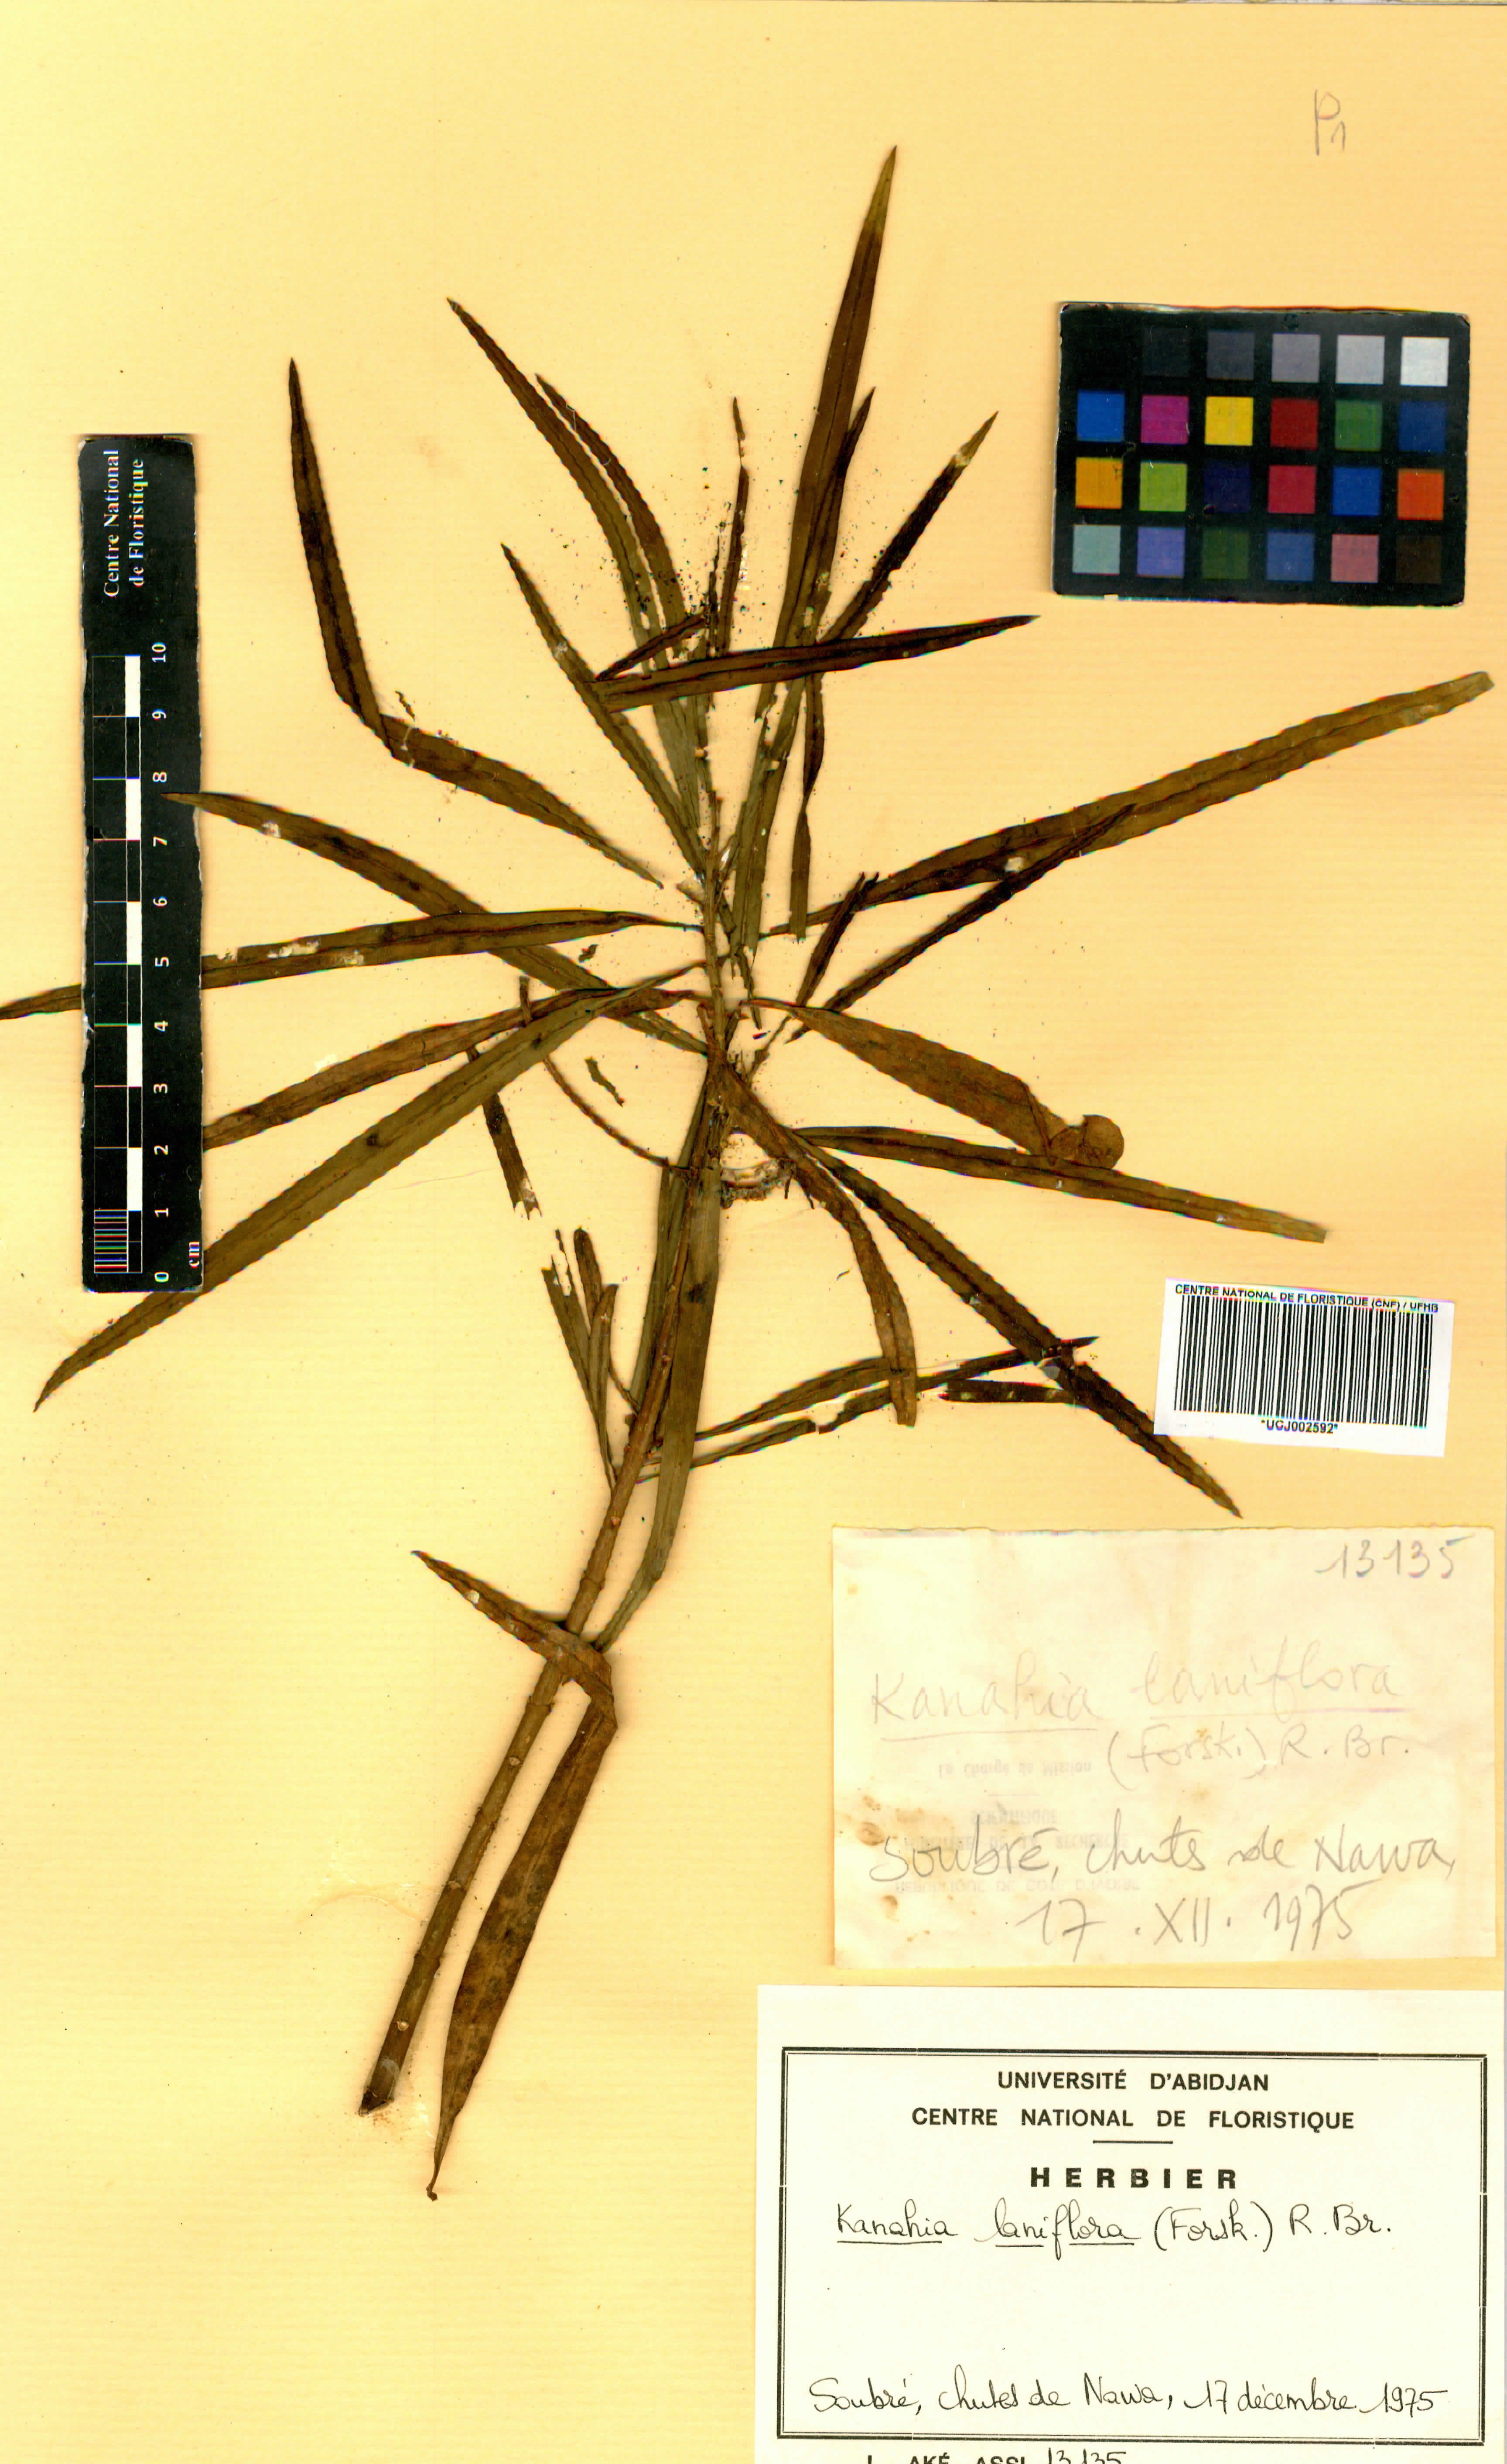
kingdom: Plantae
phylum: Tracheophyta
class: Magnoliopsida
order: Gentianales
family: Apocynaceae
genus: Kanahia
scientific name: Kanahia laniflora
